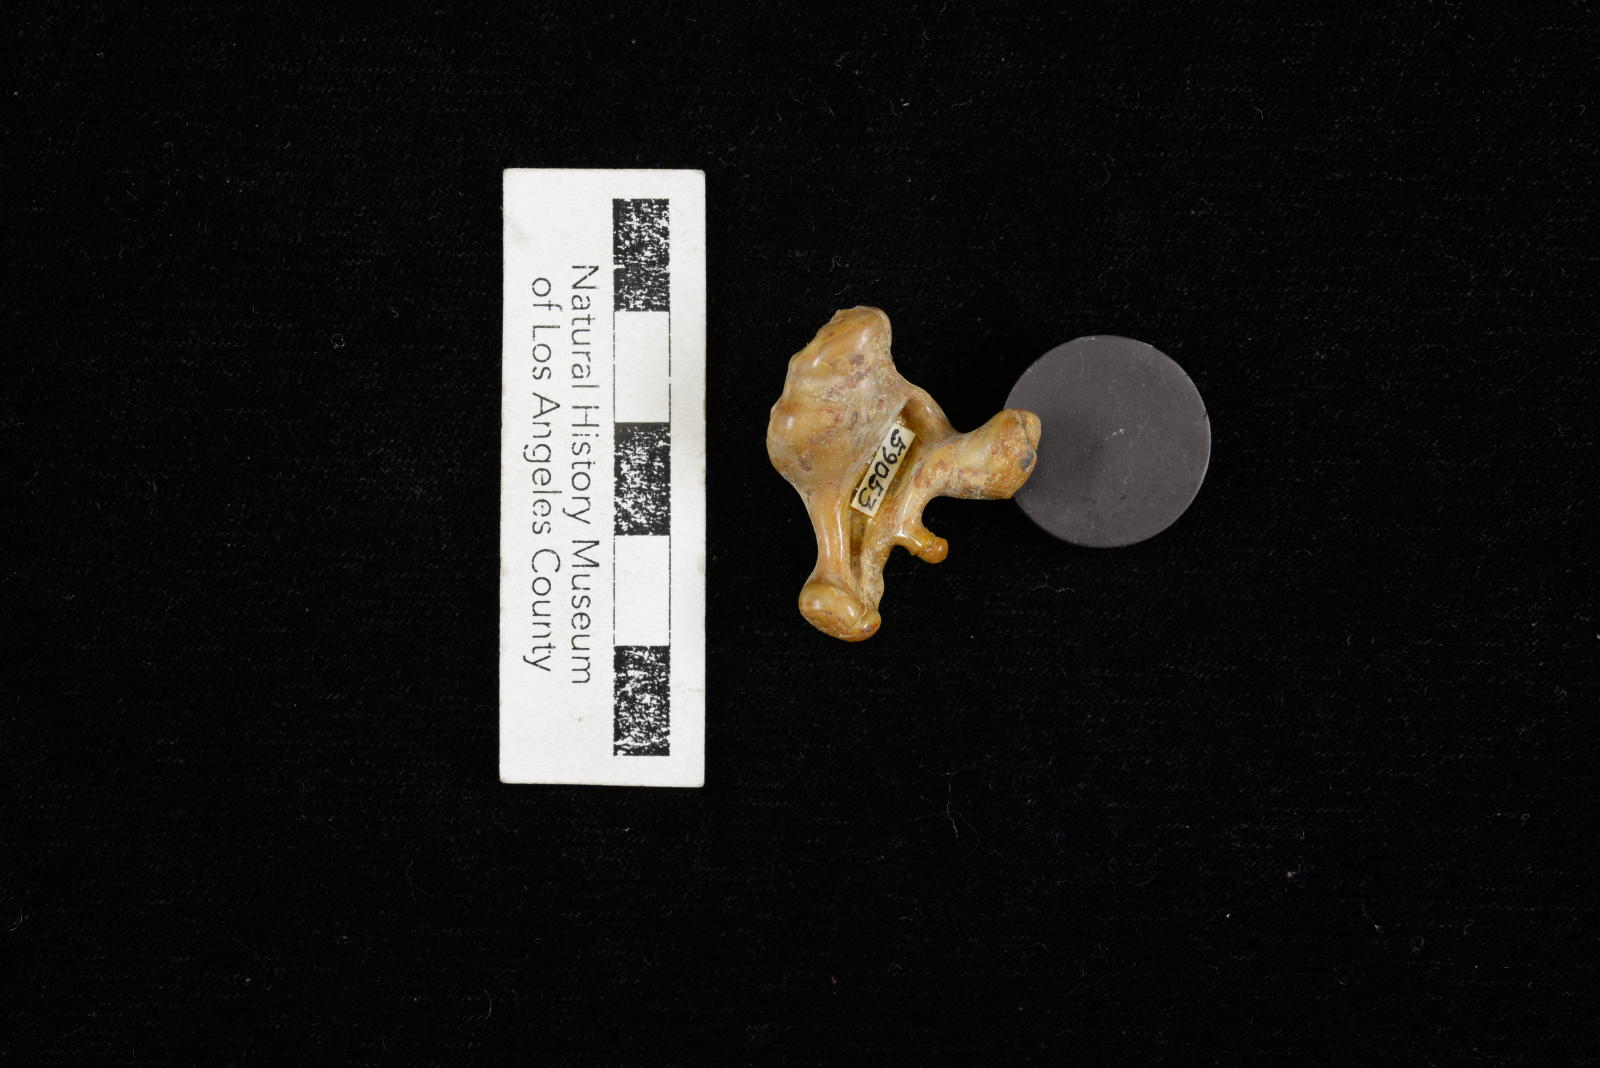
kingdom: Animalia
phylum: Mollusca
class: Gastropoda
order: Littorinimorpha
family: Aporrhaidae
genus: Pyktes
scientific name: Pyktes triphyllon
